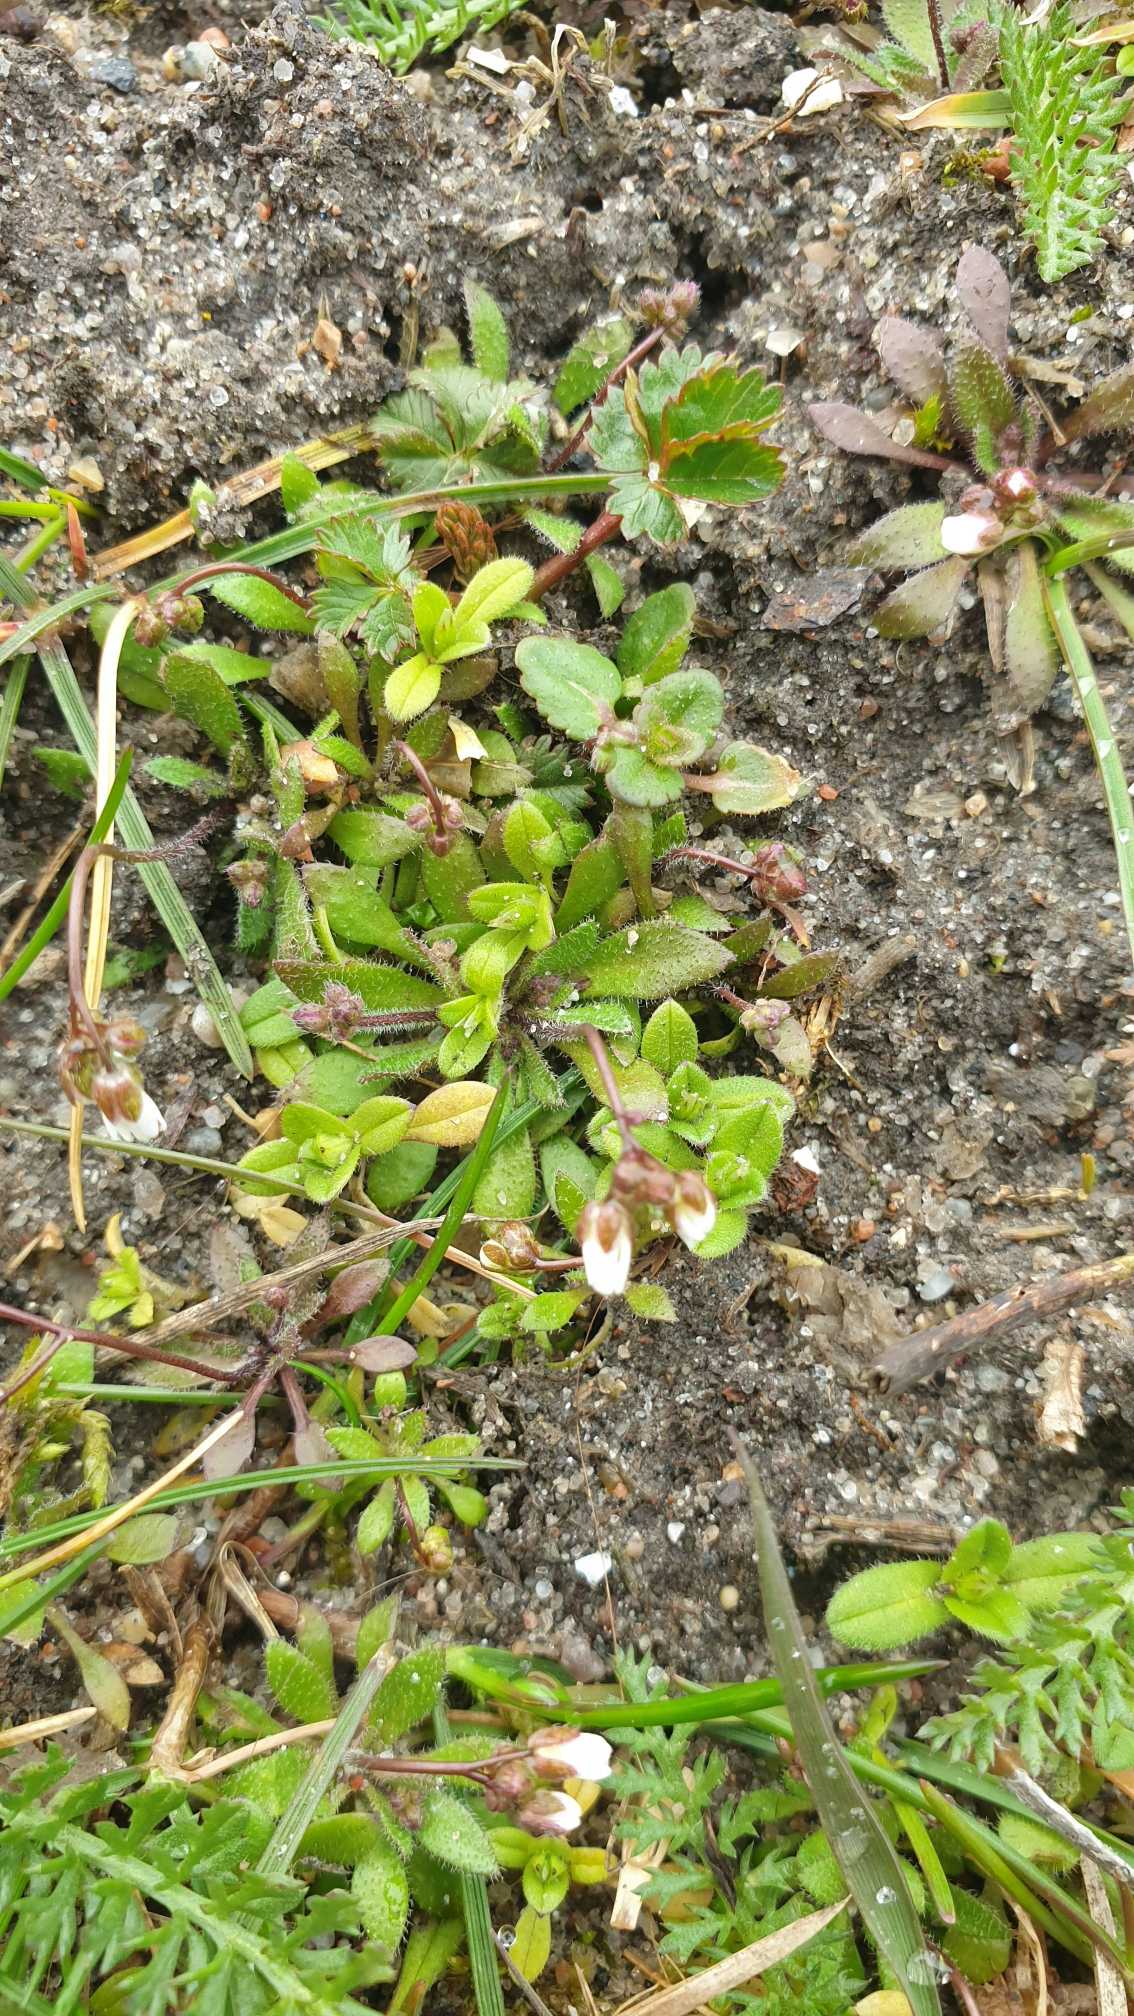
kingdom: Plantae
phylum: Tracheophyta
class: Magnoliopsida
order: Brassicales
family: Brassicaceae
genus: Draba
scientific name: Draba verna
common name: Vår-gæslingeblomst
